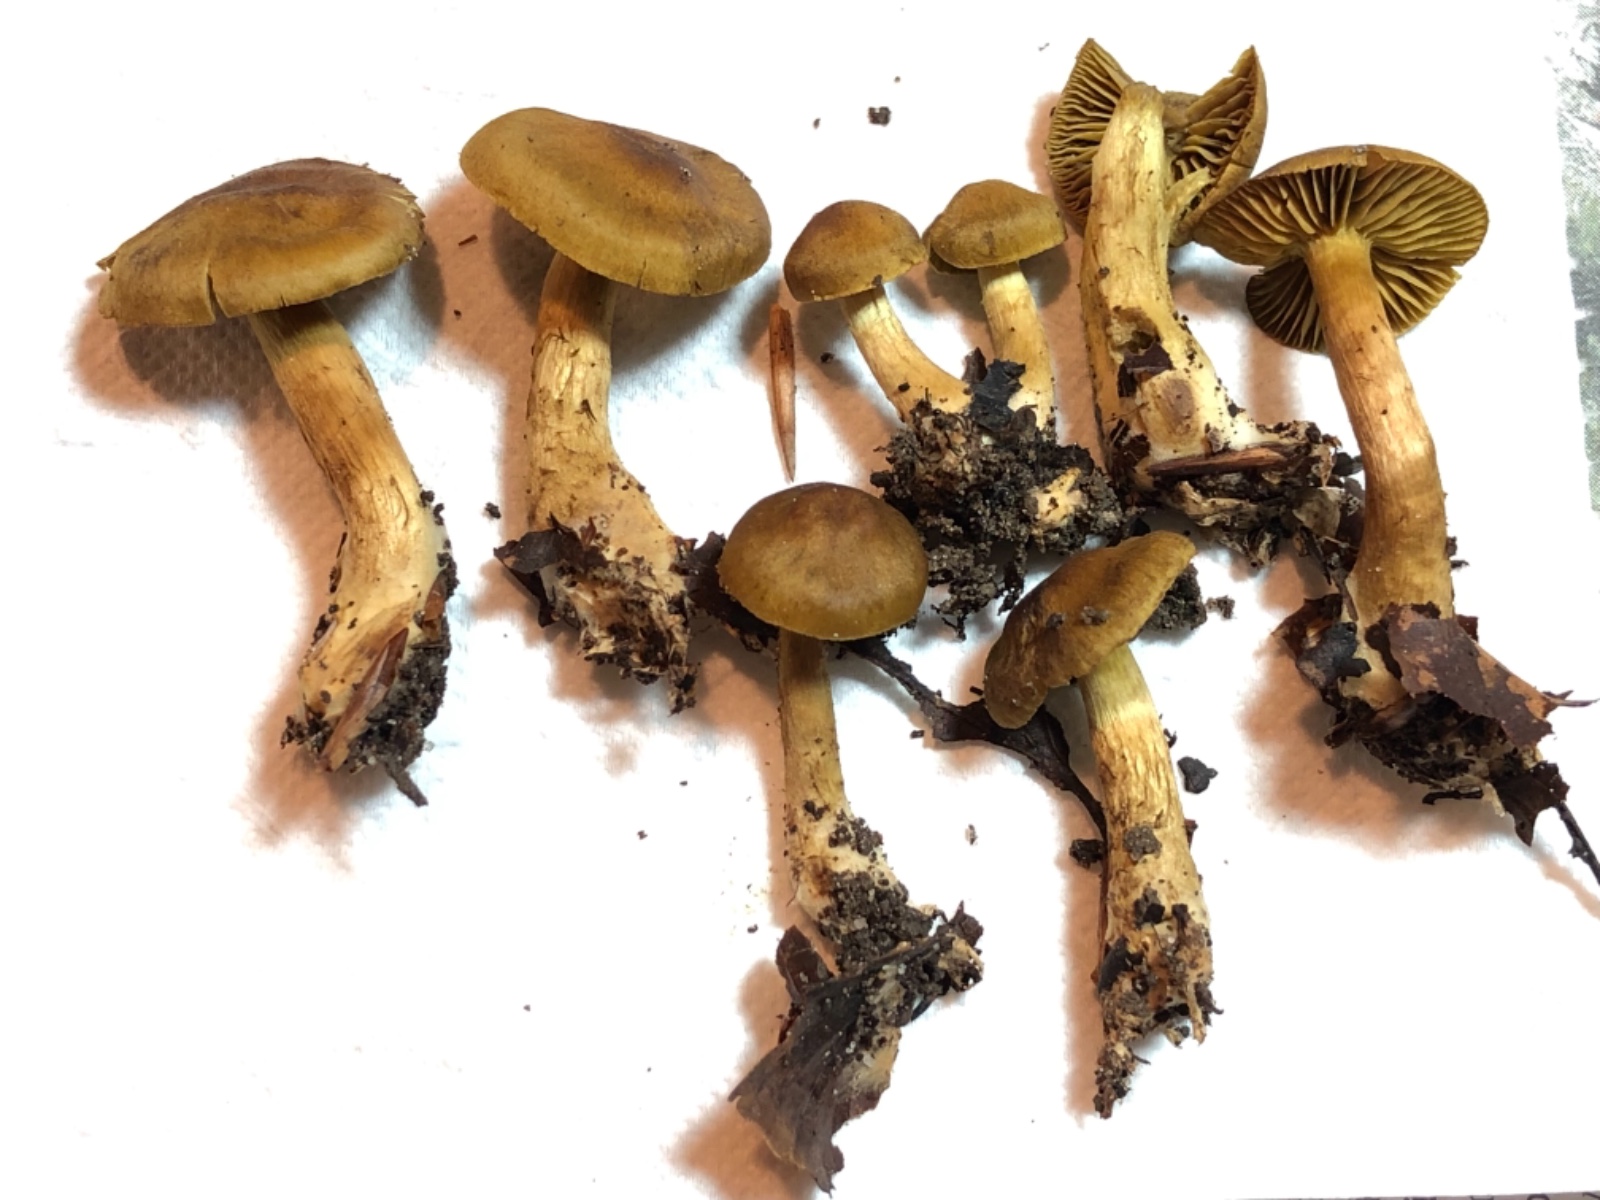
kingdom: Fungi
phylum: Basidiomycota
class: Agaricomycetes
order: Agaricales
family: Cortinariaceae
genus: Cortinarius
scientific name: Cortinarius olivaceofuscus
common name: olivenbrun slørhat
